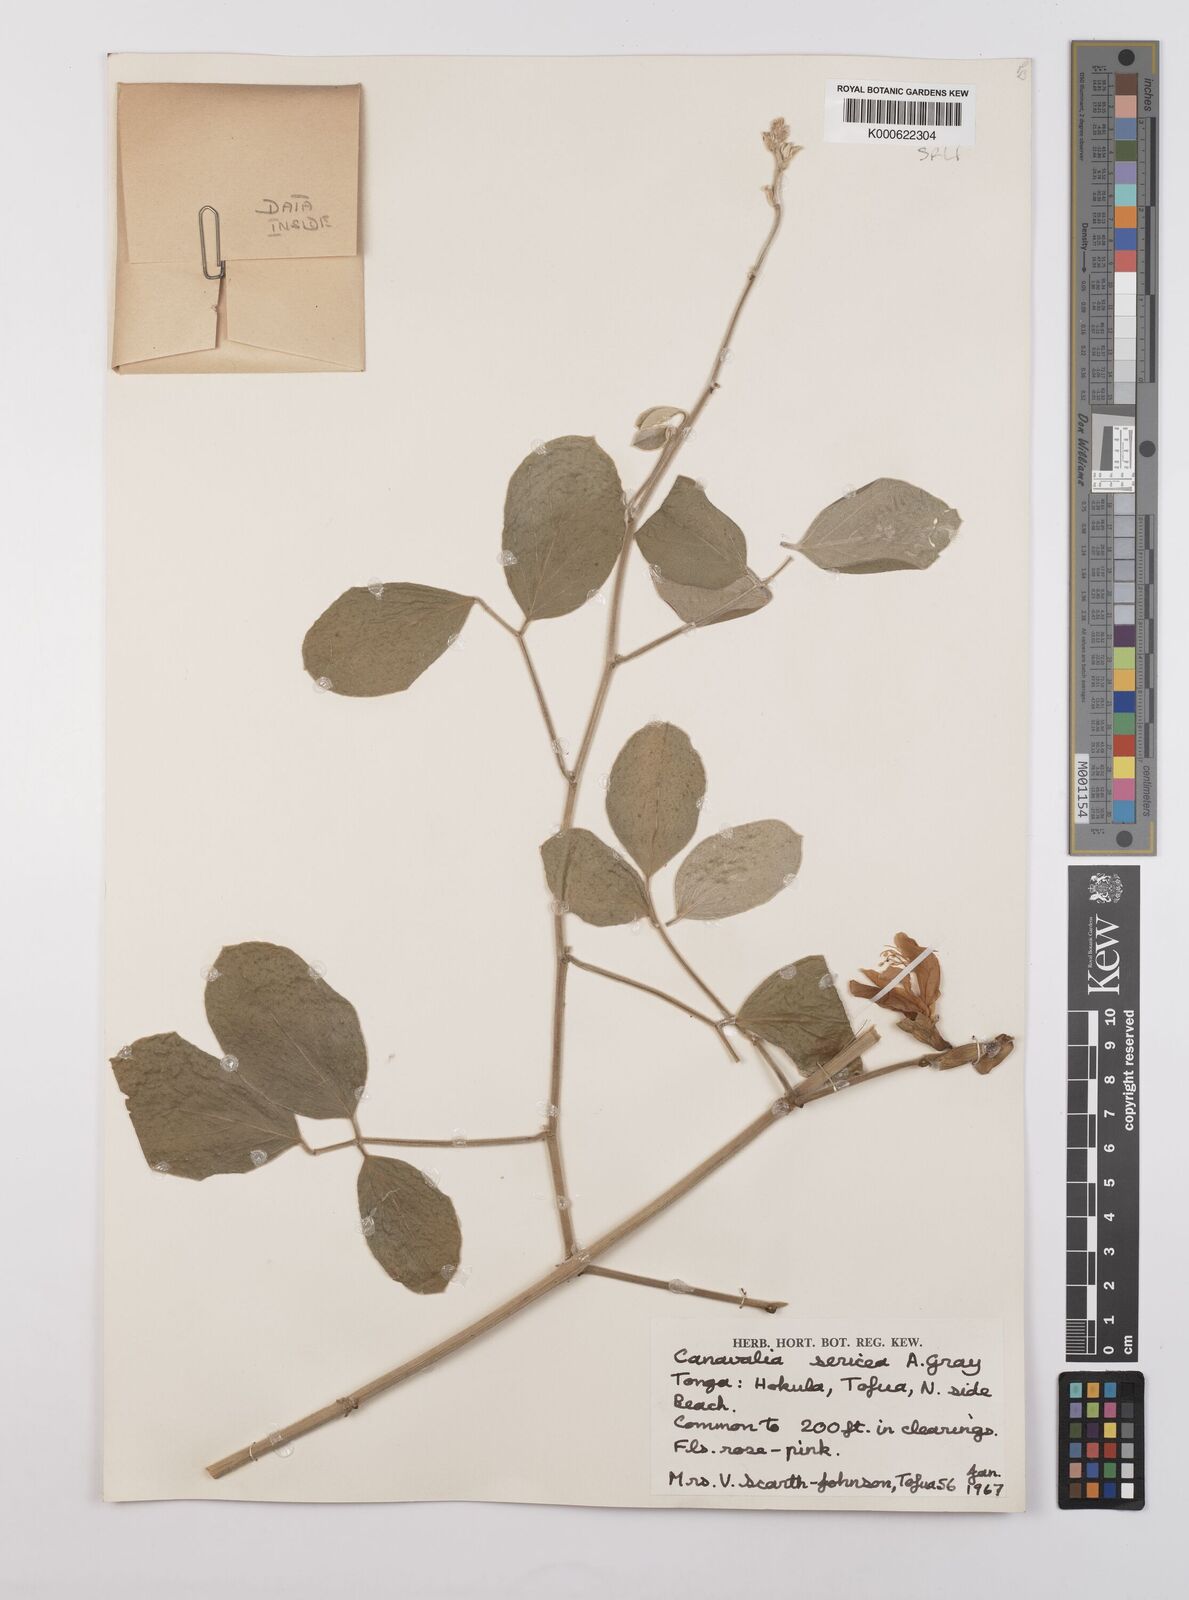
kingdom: Plantae
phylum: Tracheophyta
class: Magnoliopsida
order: Fabales
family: Fabaceae
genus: Canavalia
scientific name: Canavalia sericea
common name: Silky jackbean
